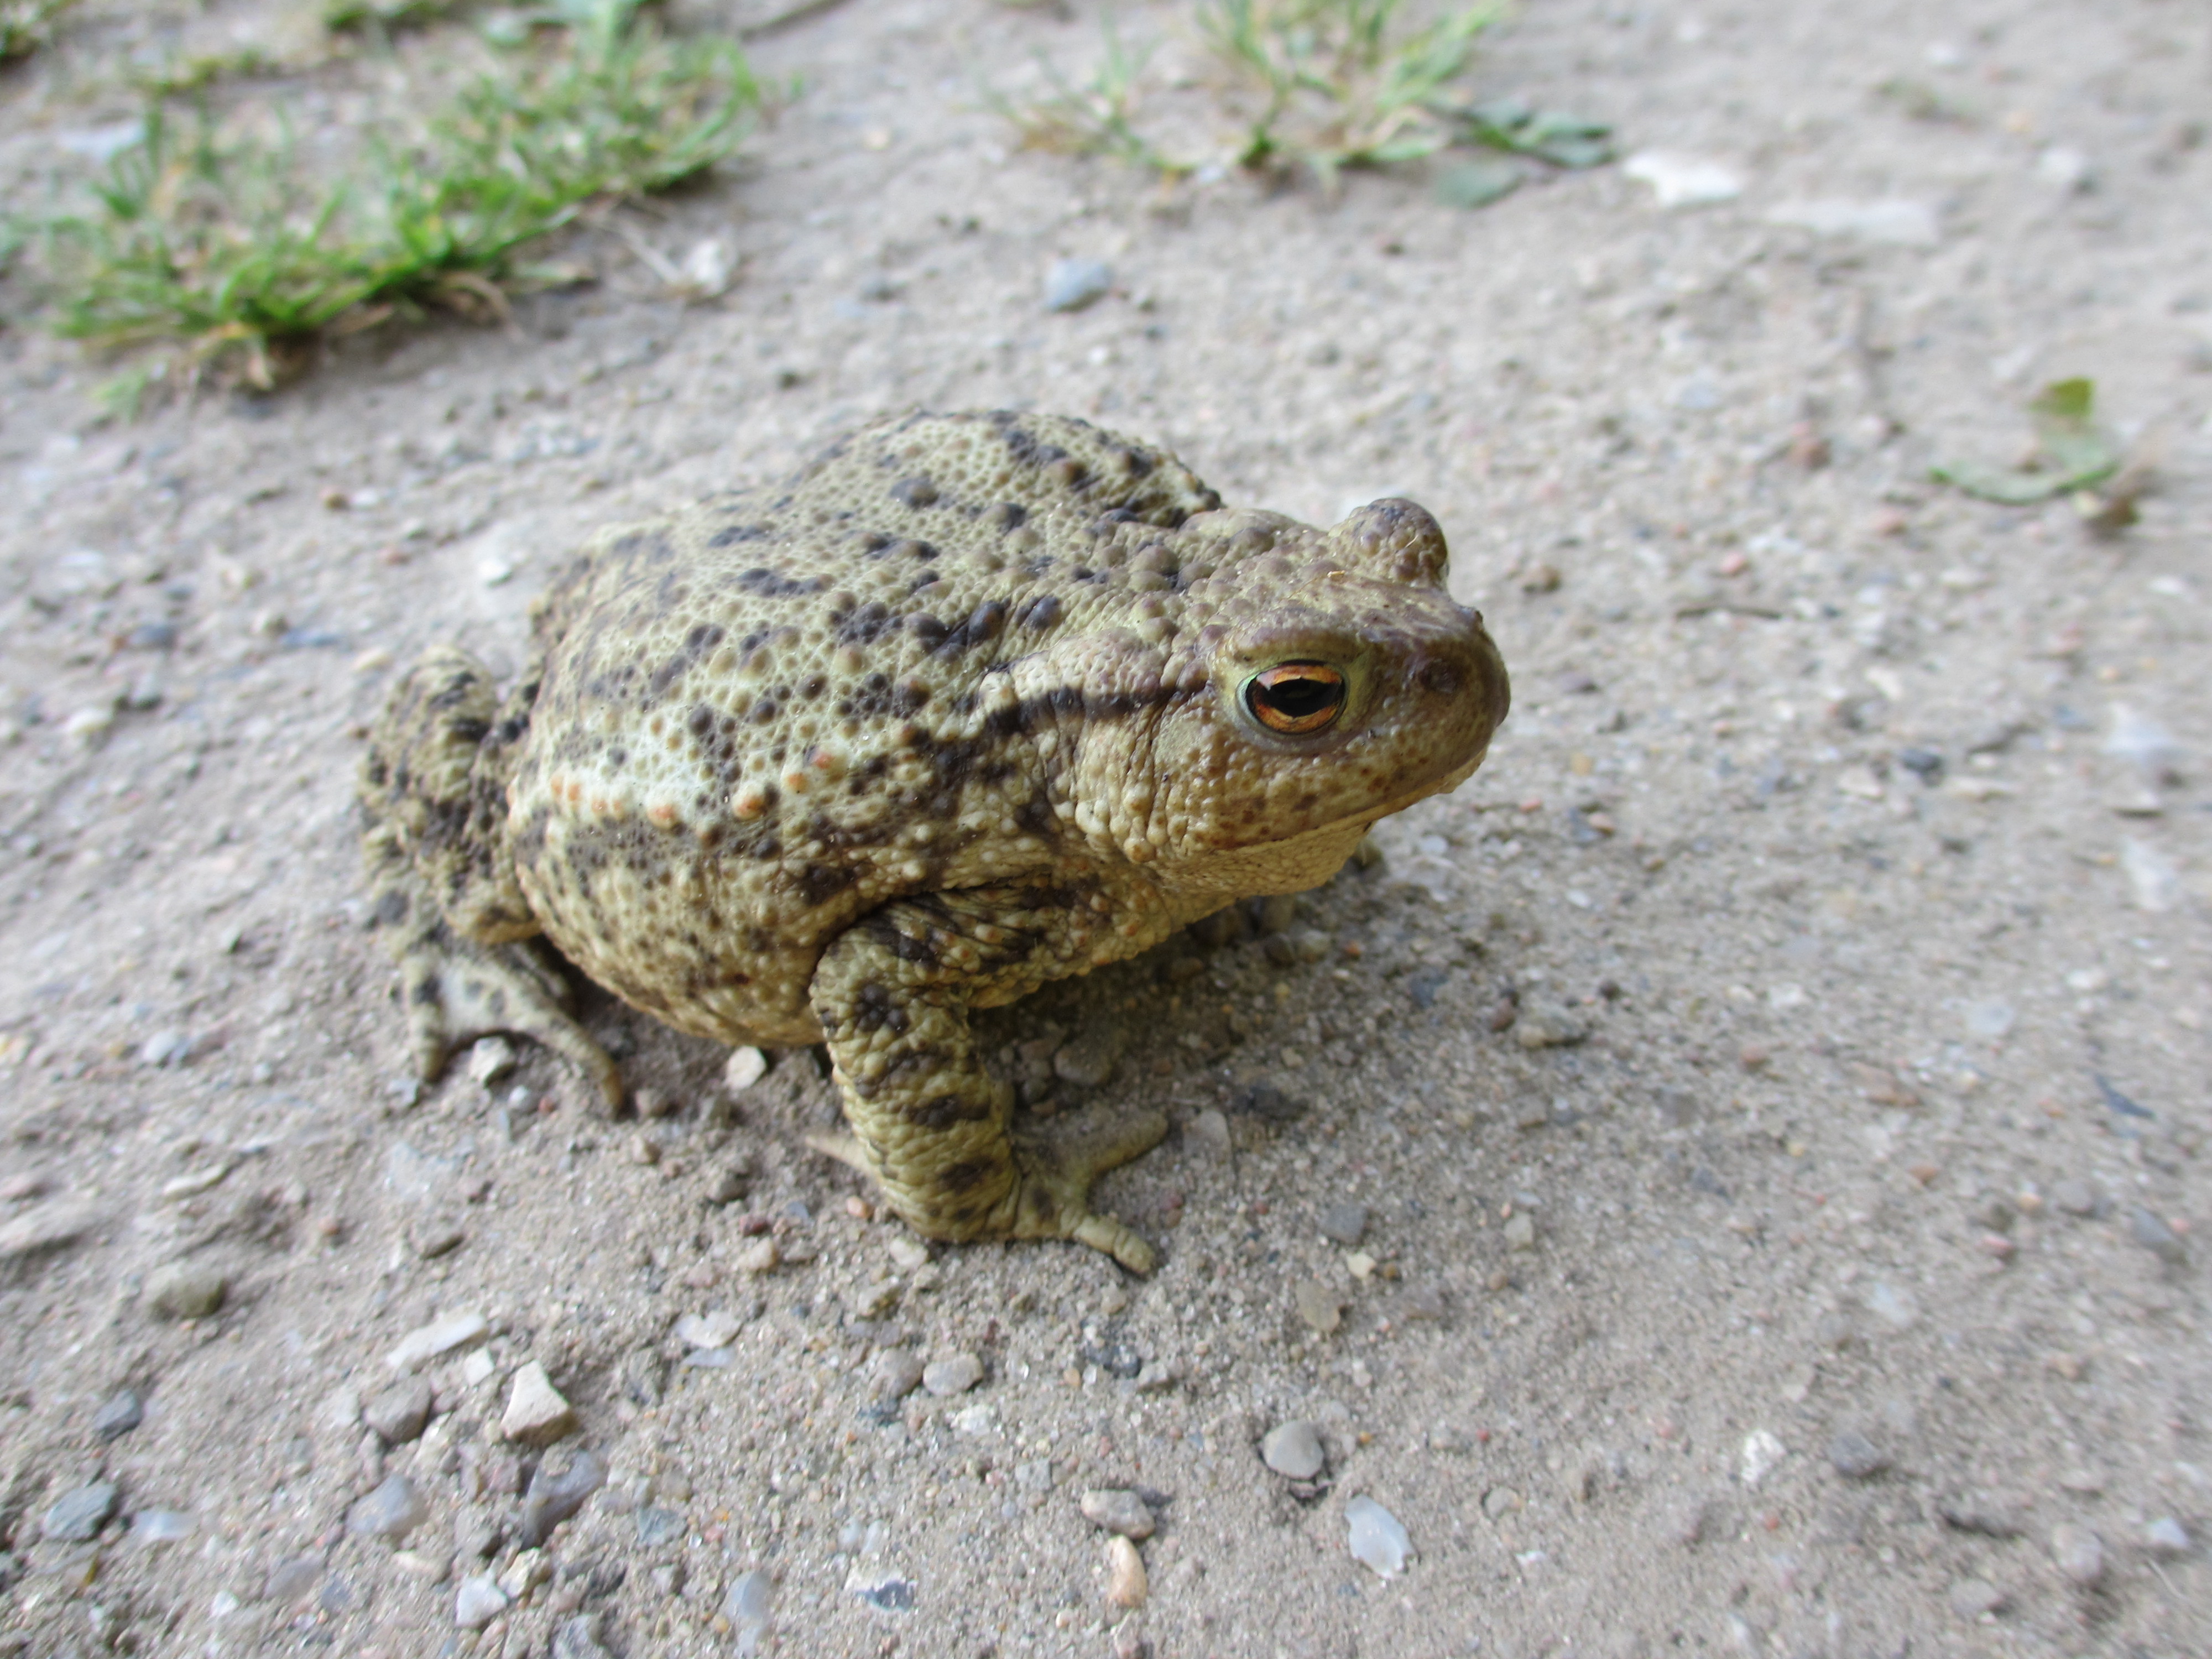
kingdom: Animalia
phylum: Chordata
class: Amphibia
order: Anura
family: Bufonidae
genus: Bufo
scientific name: Bufo bufo
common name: Skrubtudse
